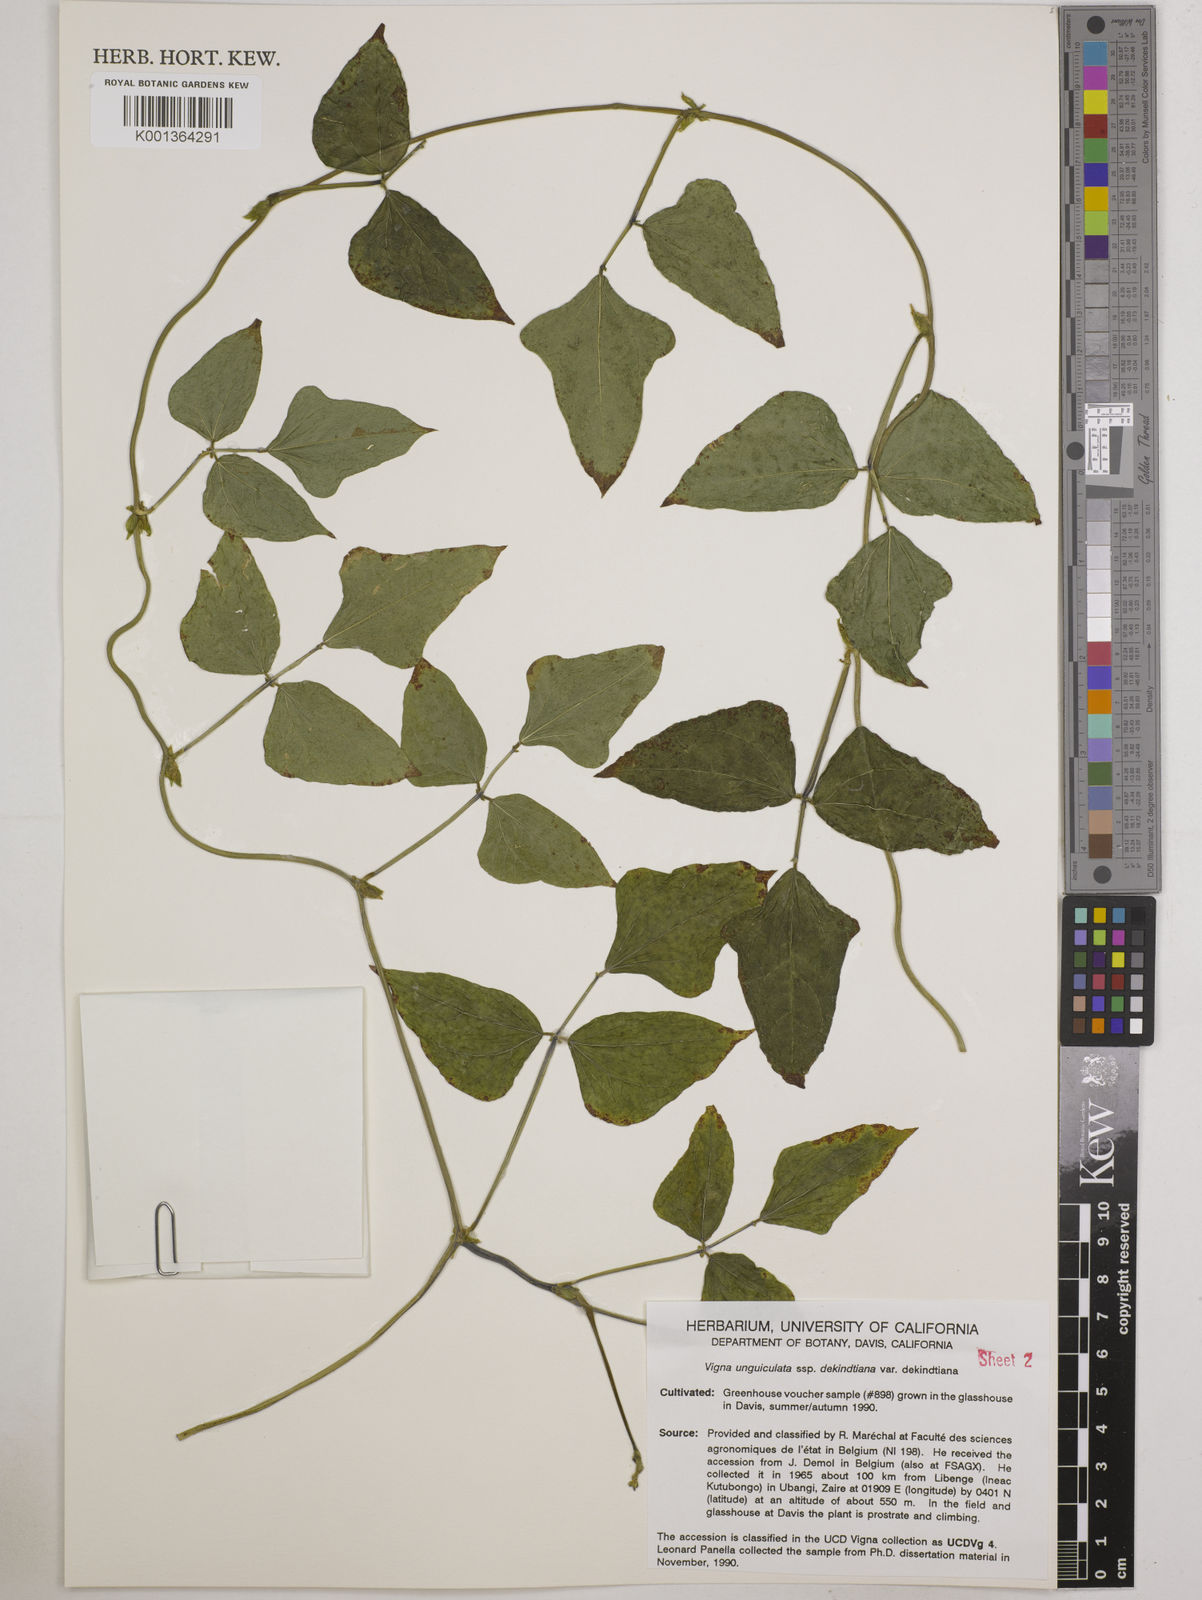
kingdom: Plantae
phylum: Tracheophyta
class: Magnoliopsida
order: Fabales
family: Fabaceae
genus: Vigna
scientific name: Vigna
